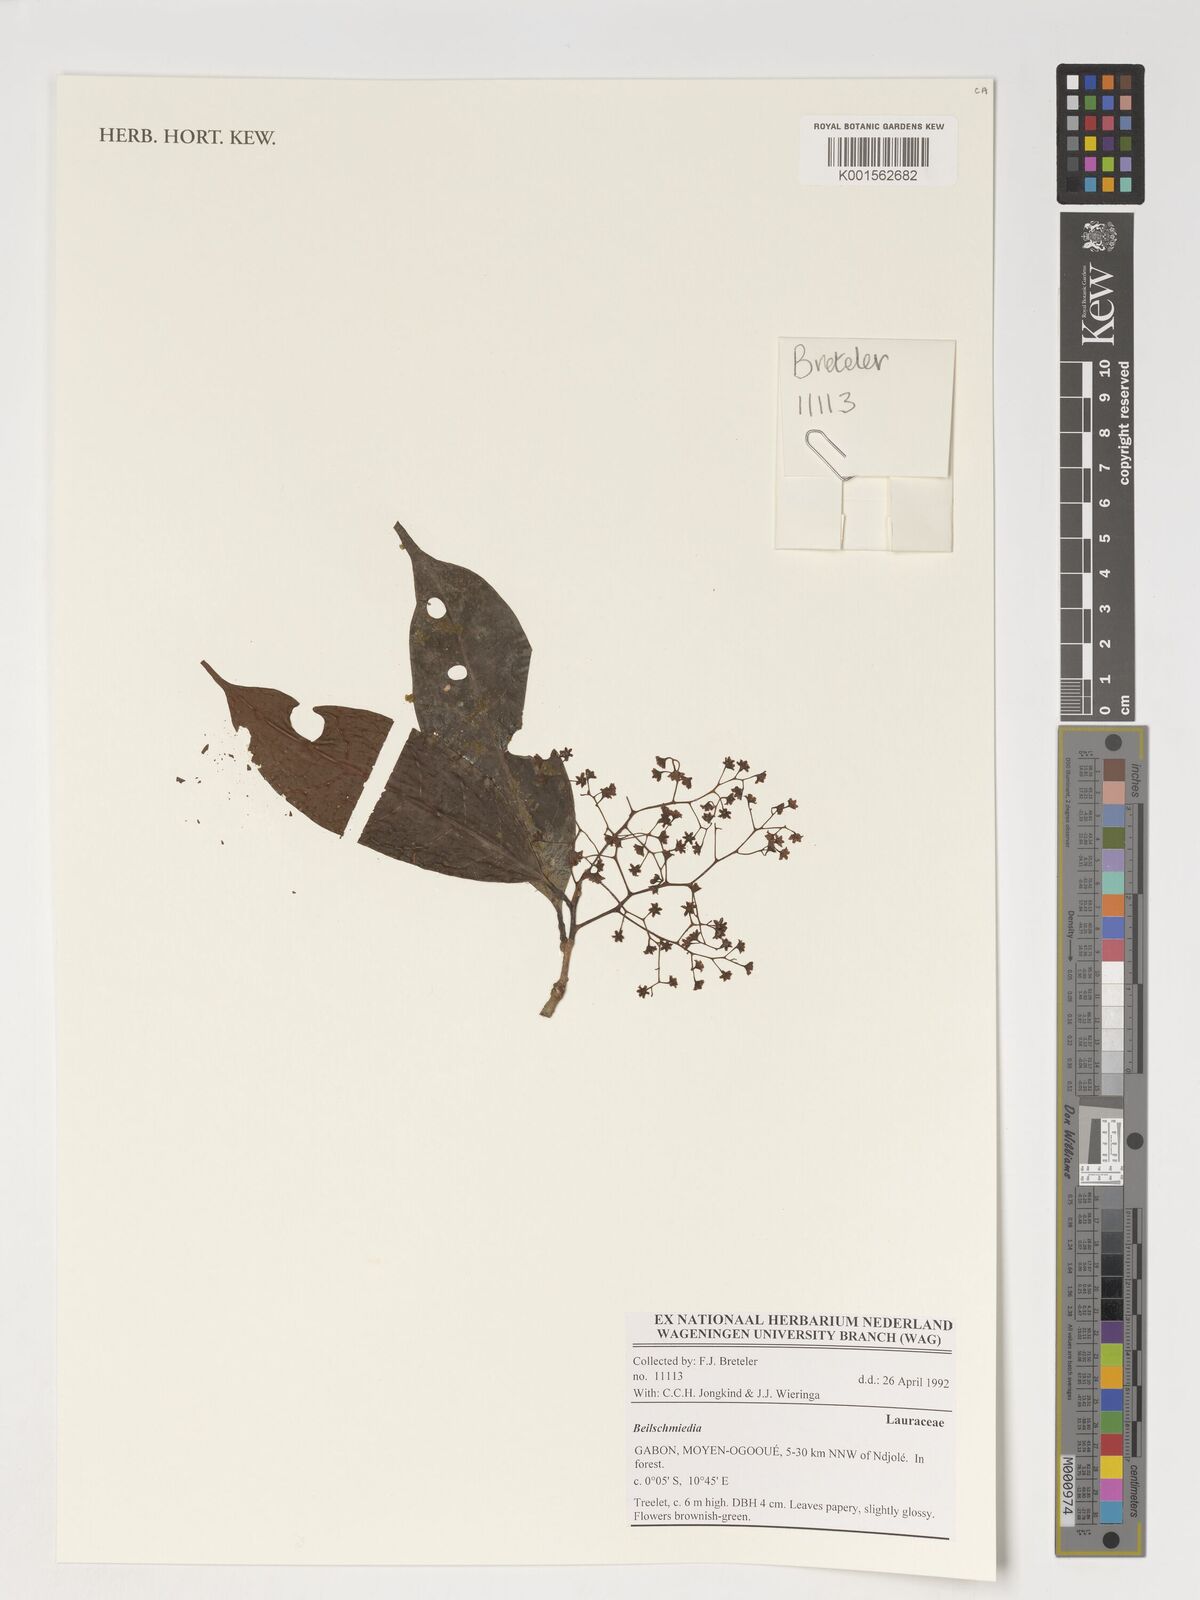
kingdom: Plantae
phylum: Tracheophyta
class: Magnoliopsida
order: Laurales
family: Lauraceae
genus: Beilschmiedia
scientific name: Beilschmiedia
